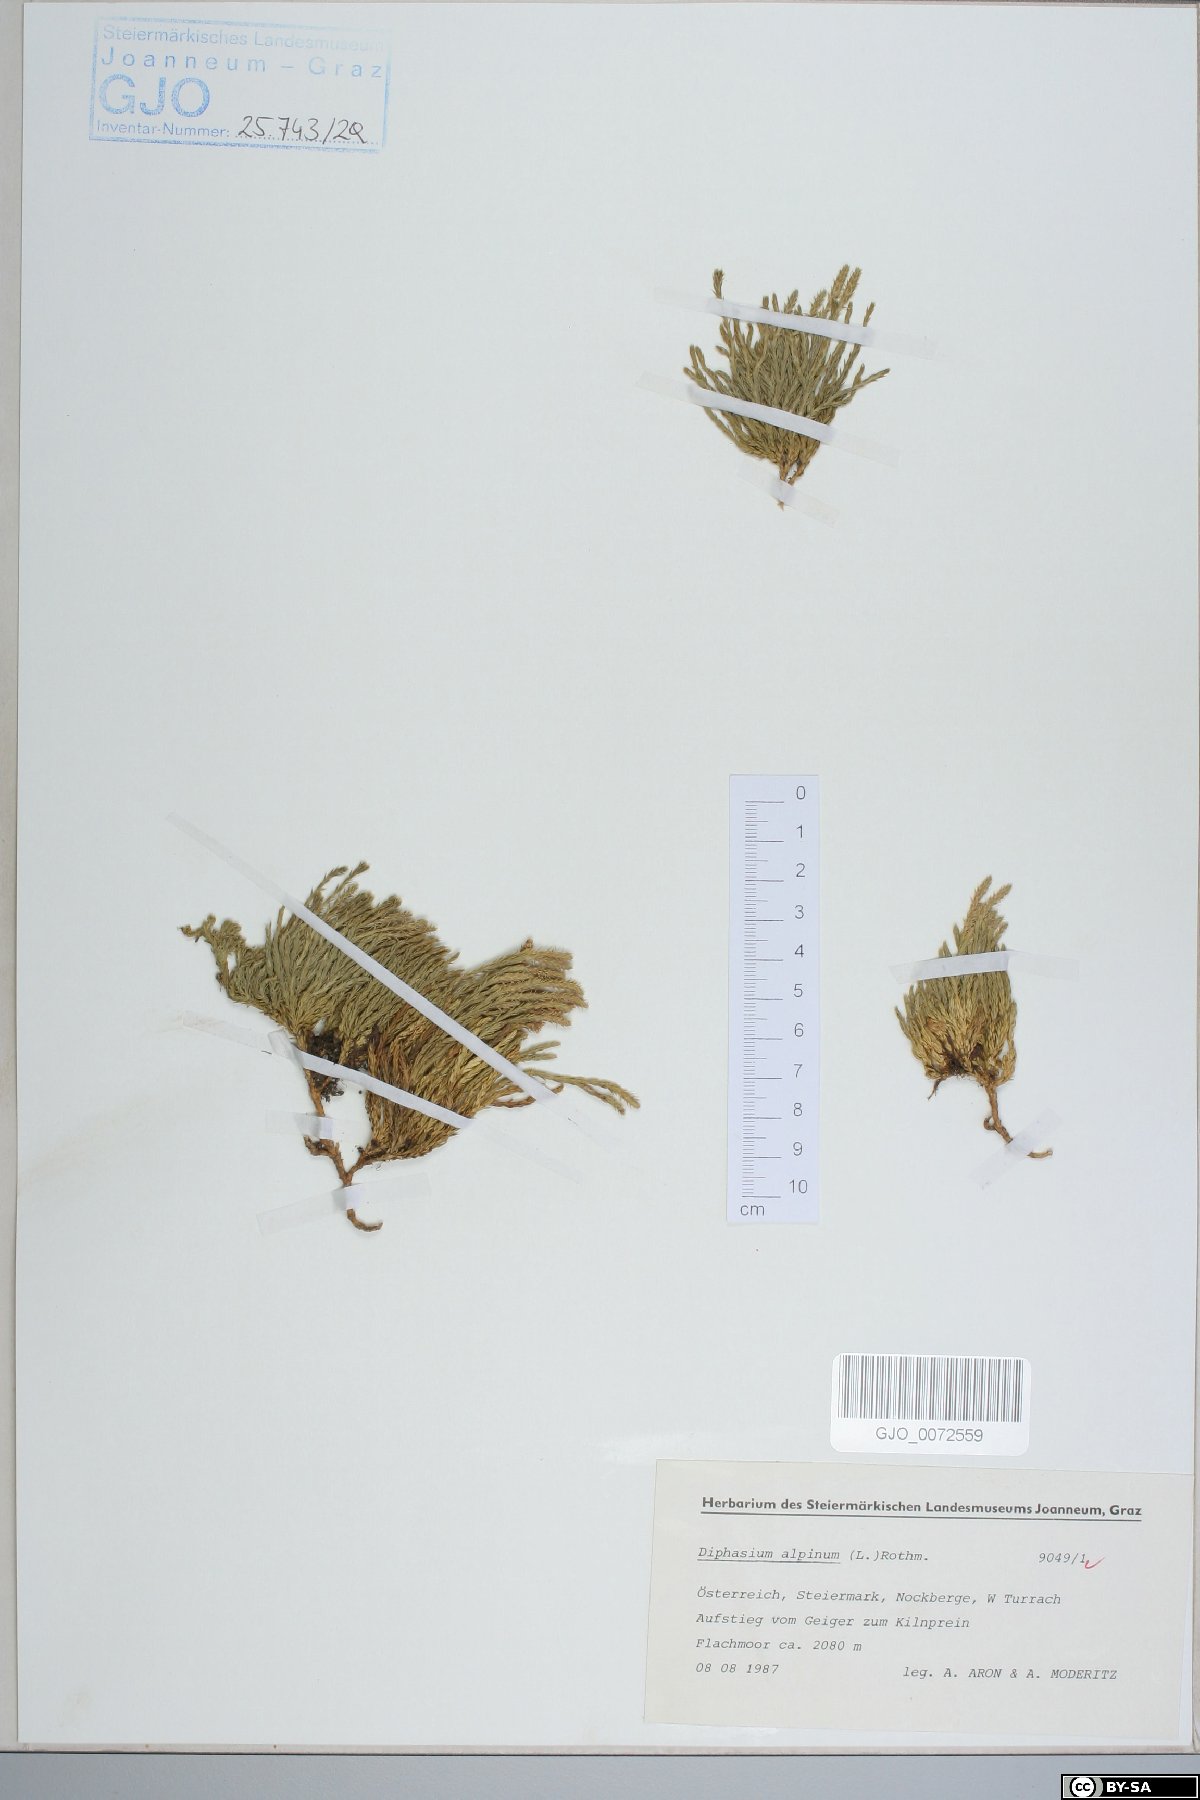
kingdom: Plantae
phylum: Tracheophyta
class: Lycopodiopsida
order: Lycopodiales
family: Lycopodiaceae
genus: Diphasiastrum
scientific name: Diphasiastrum alpinum
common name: Alpine clubmoss
